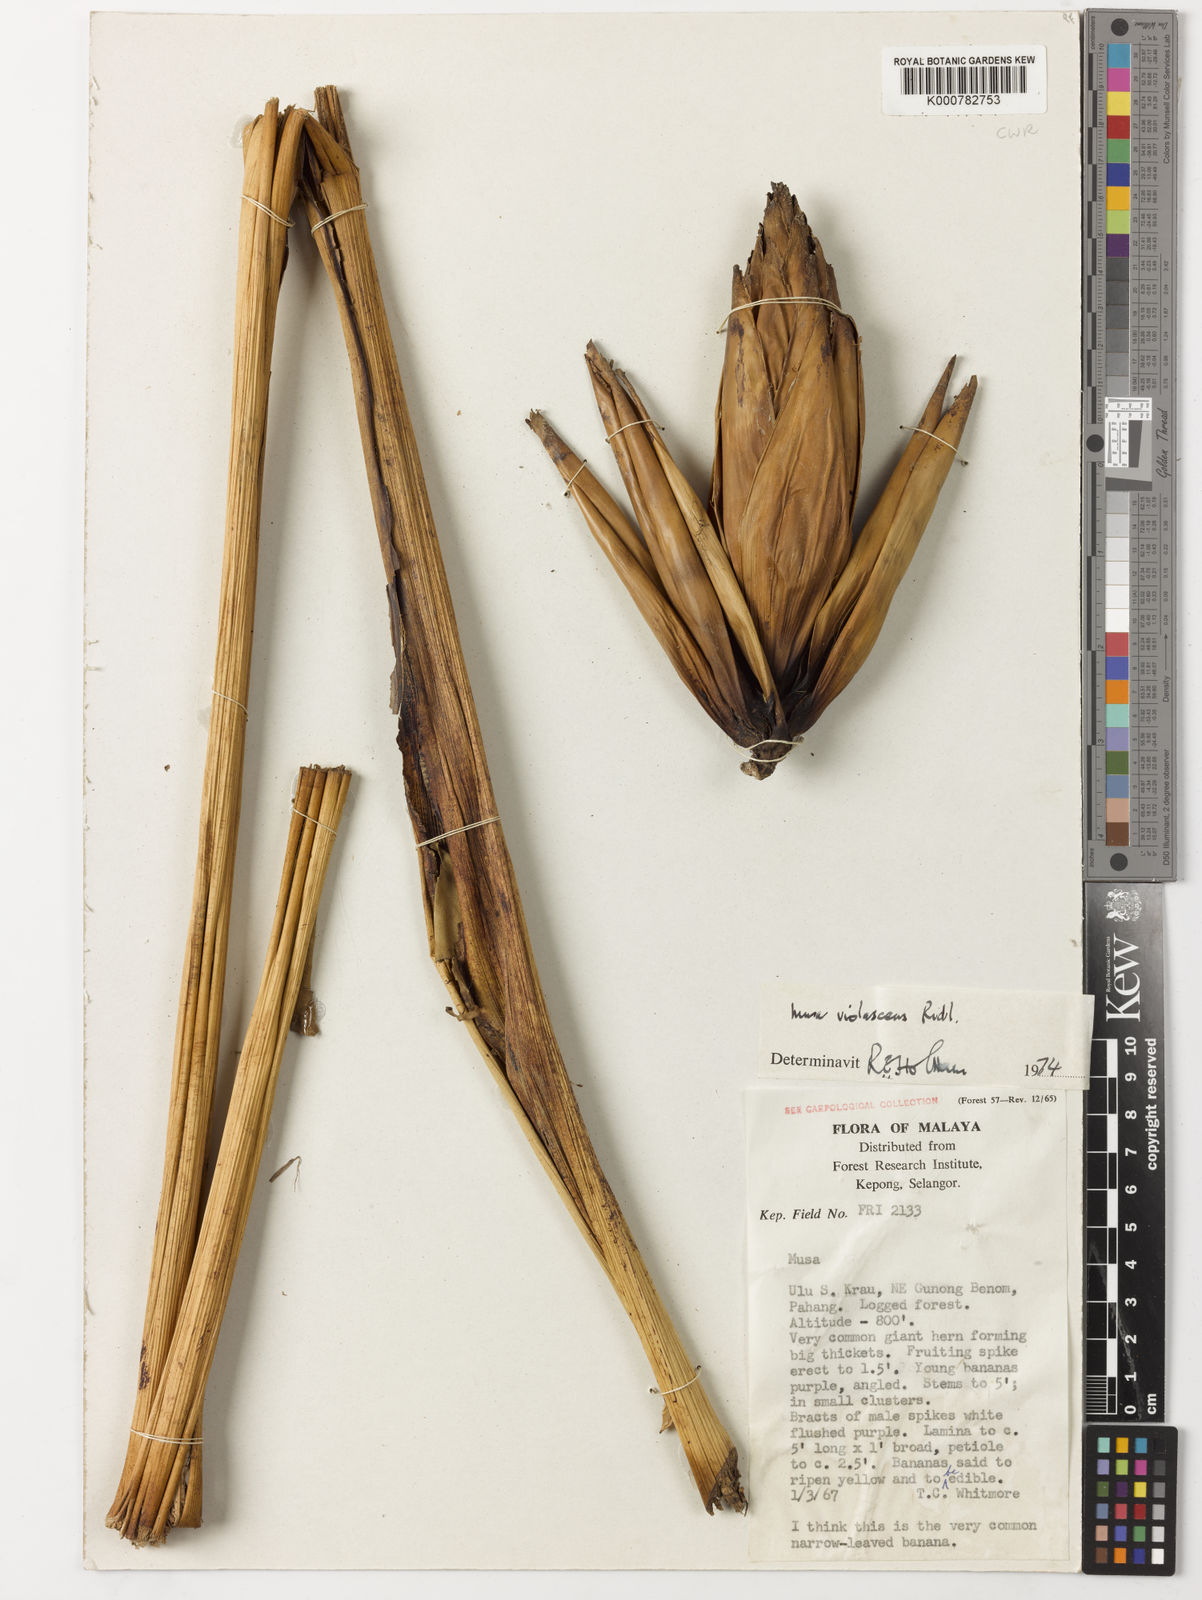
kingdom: Plantae
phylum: Tracheophyta
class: Liliopsida
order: Zingiberales
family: Musaceae
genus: Musa
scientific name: Musa violascens
